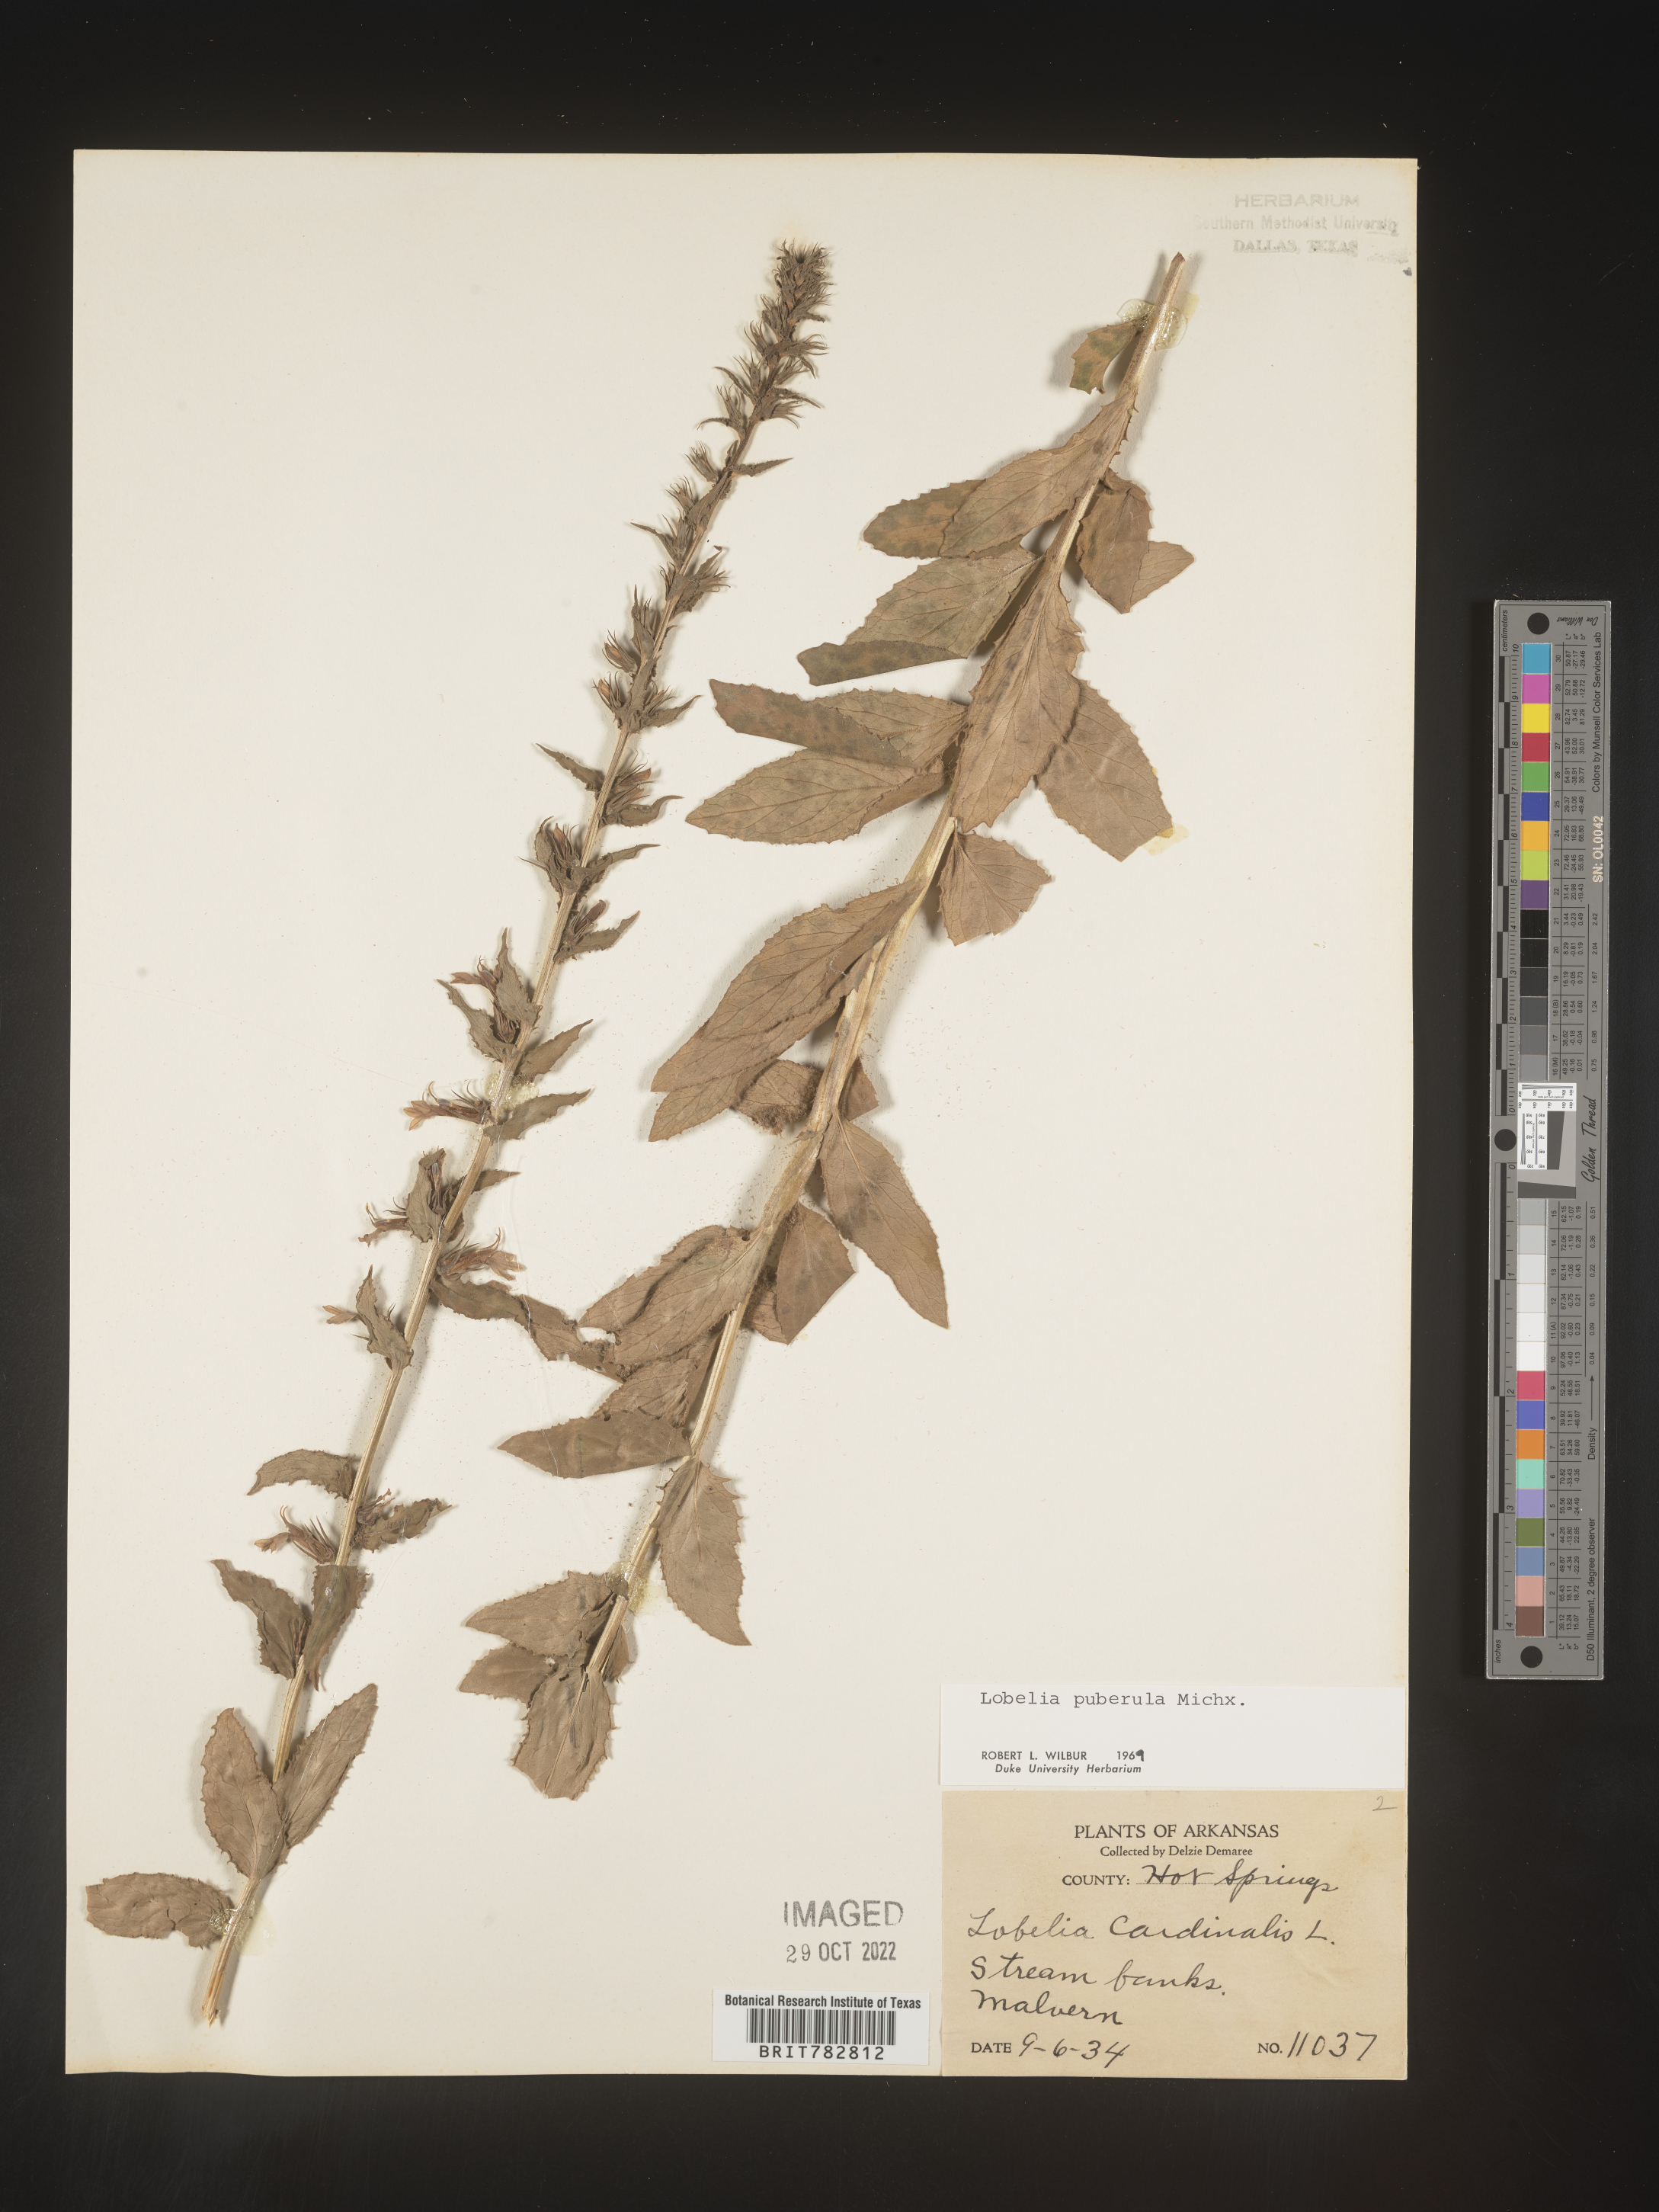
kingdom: Plantae
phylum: Tracheophyta
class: Magnoliopsida
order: Asterales
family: Campanulaceae
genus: Lobelia
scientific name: Lobelia puberula
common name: Purple dewdrop
